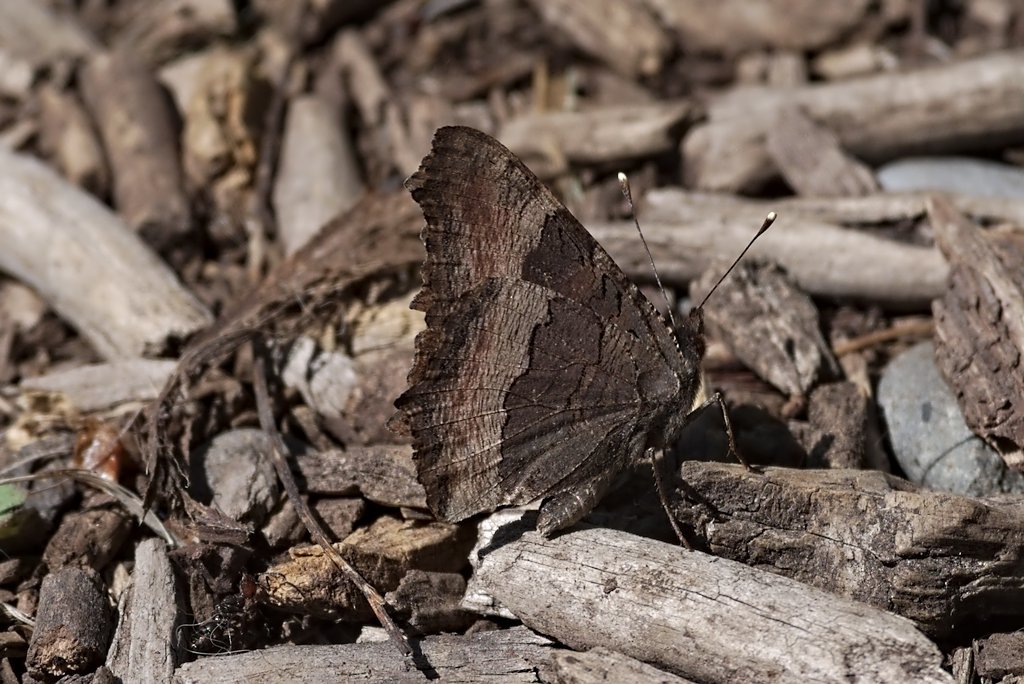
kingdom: Animalia
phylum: Arthropoda
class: Insecta
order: Lepidoptera
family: Nymphalidae
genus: Aglais
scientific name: Aglais milberti
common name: Milbert's Tortoiseshell
